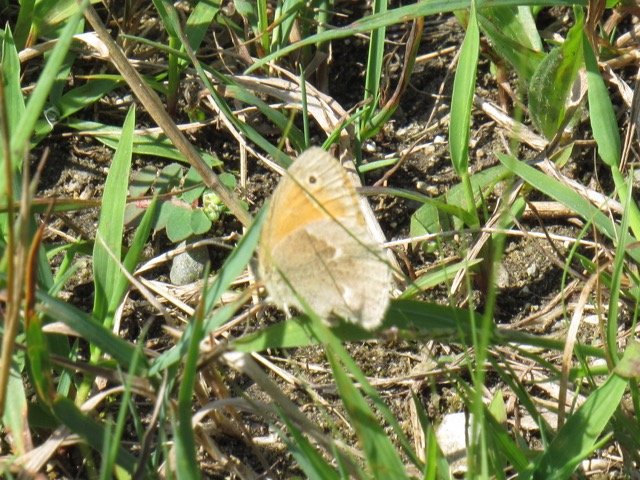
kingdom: Animalia
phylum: Arthropoda
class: Insecta
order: Lepidoptera
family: Nymphalidae
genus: Coenonympha
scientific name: Coenonympha tullia
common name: Large Heath
